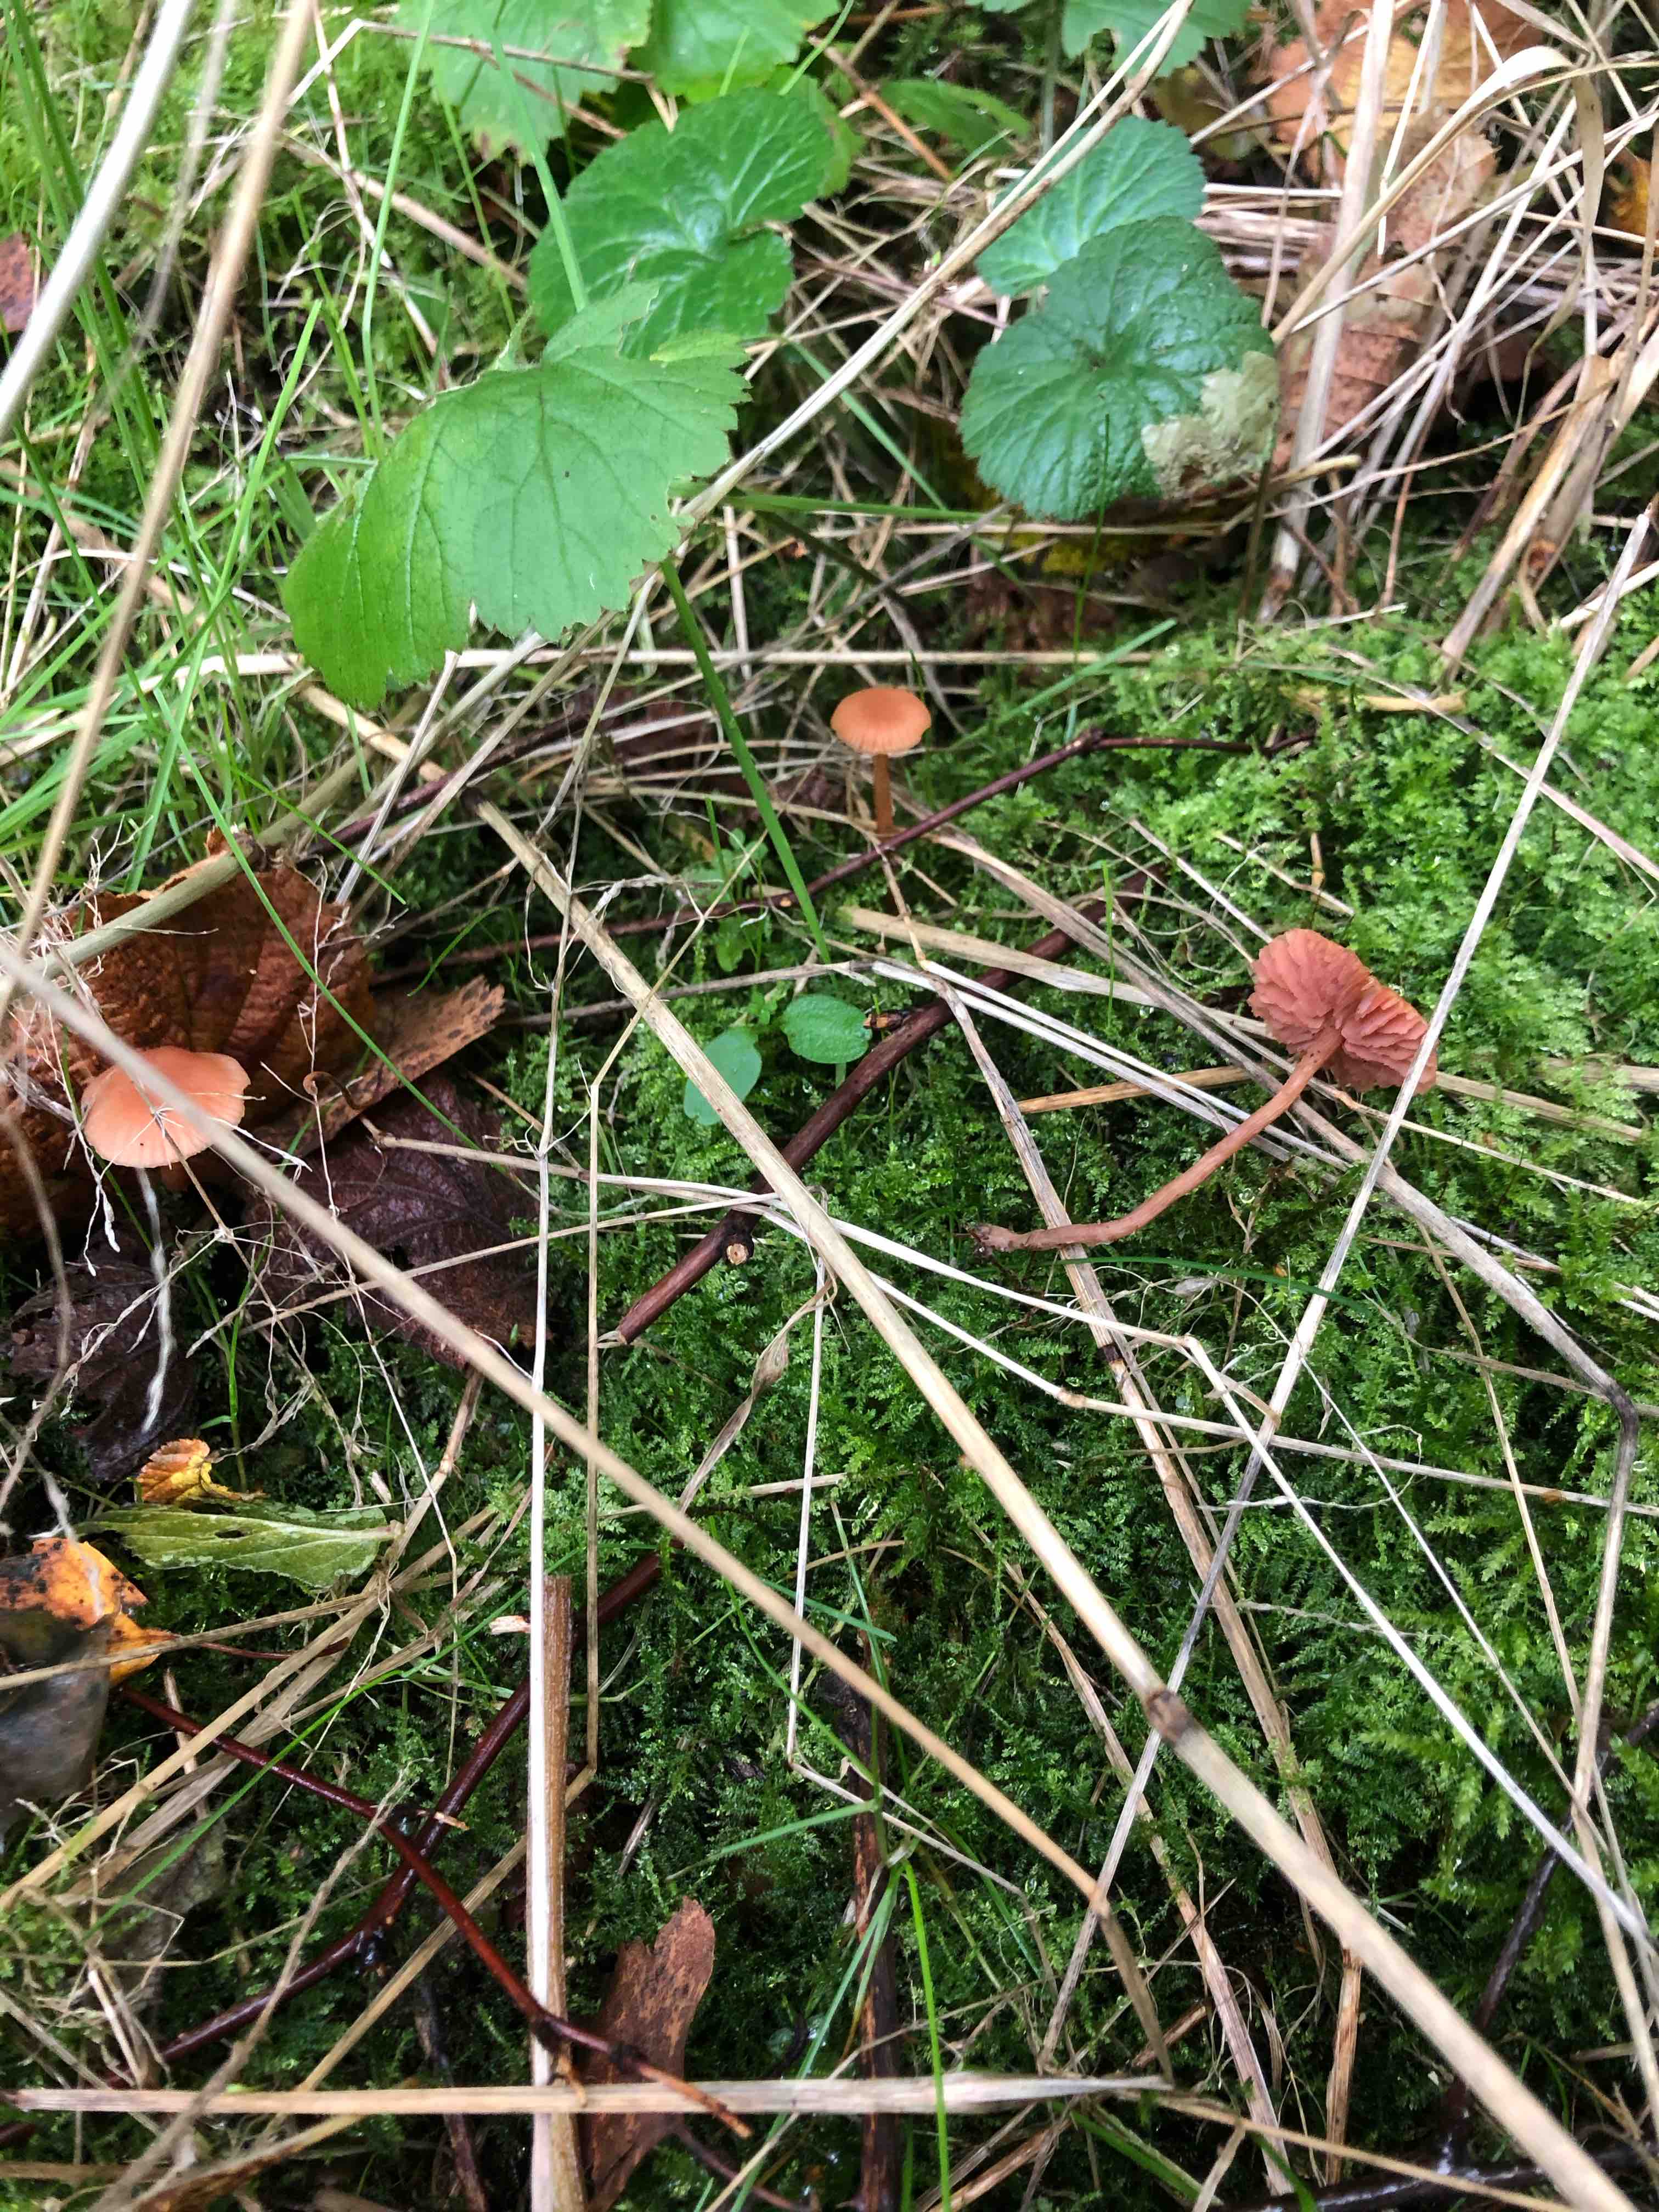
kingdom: Fungi
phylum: Basidiomycota
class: Agaricomycetes
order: Agaricales
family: Hydnangiaceae
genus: Laccaria
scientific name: Laccaria
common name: ametysthat
